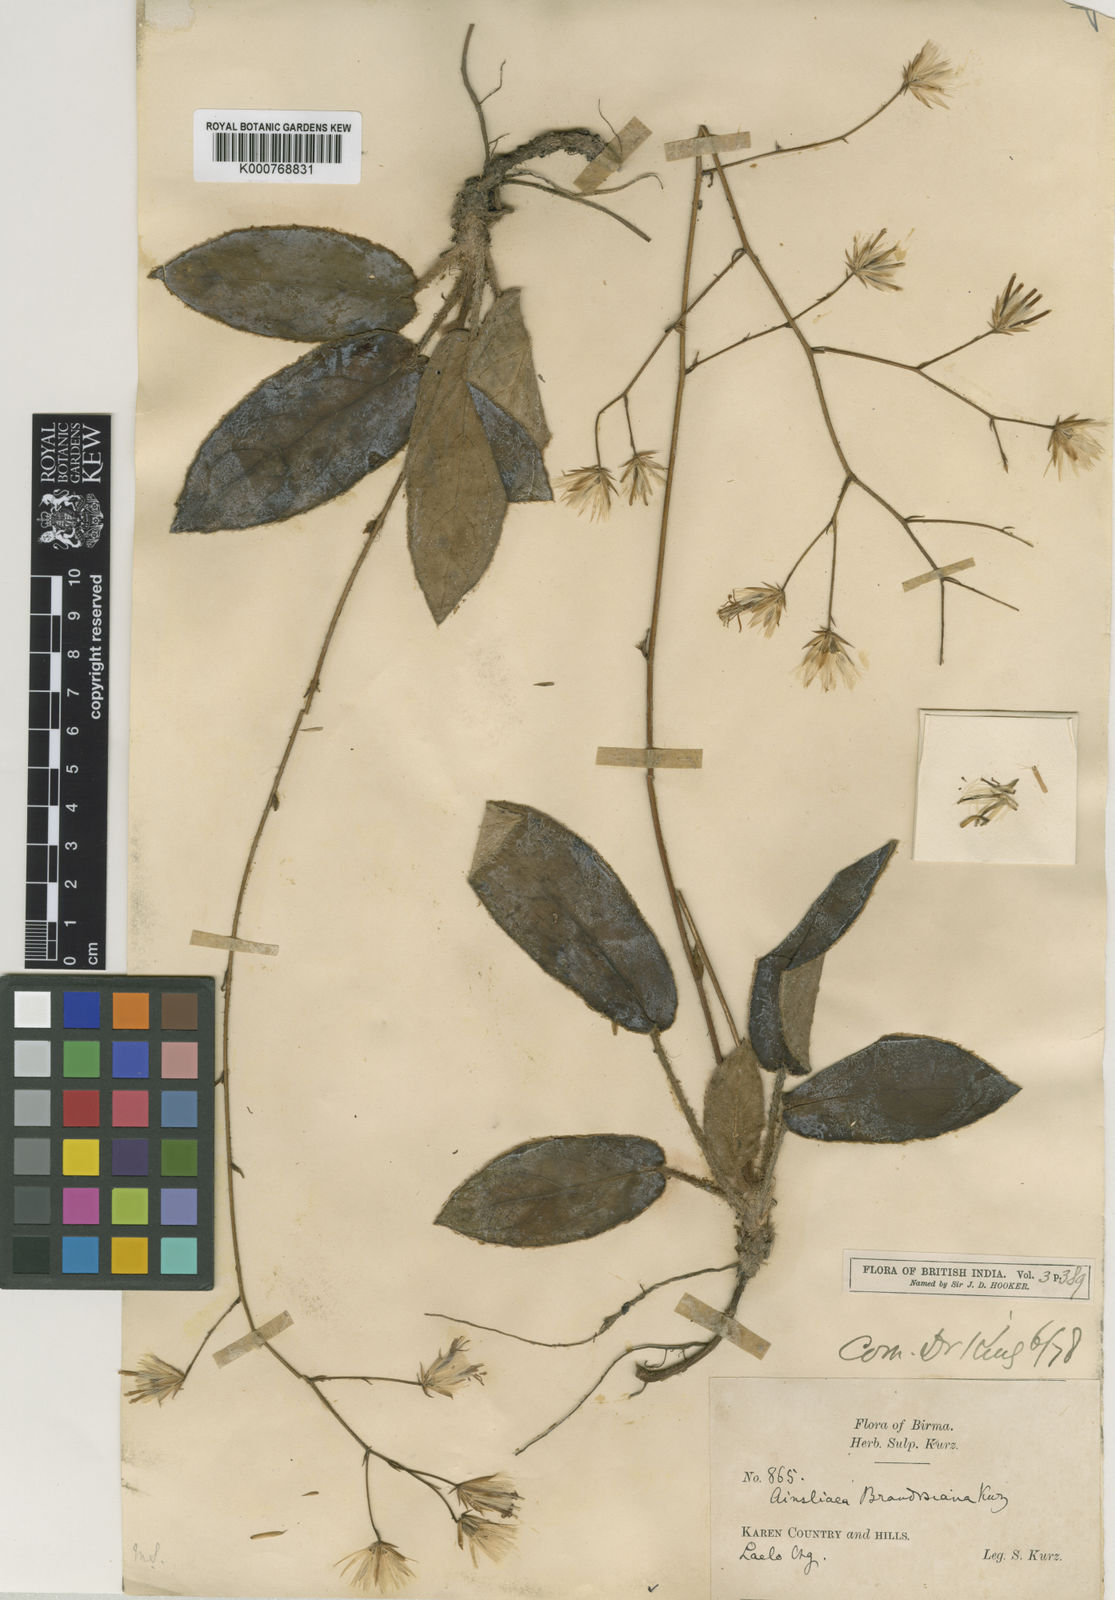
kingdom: Plantae
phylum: Tracheophyta
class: Magnoliopsida
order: Asterales
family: Asteraceae
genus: Ainsliaea
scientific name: Ainsliaea brandisiana
